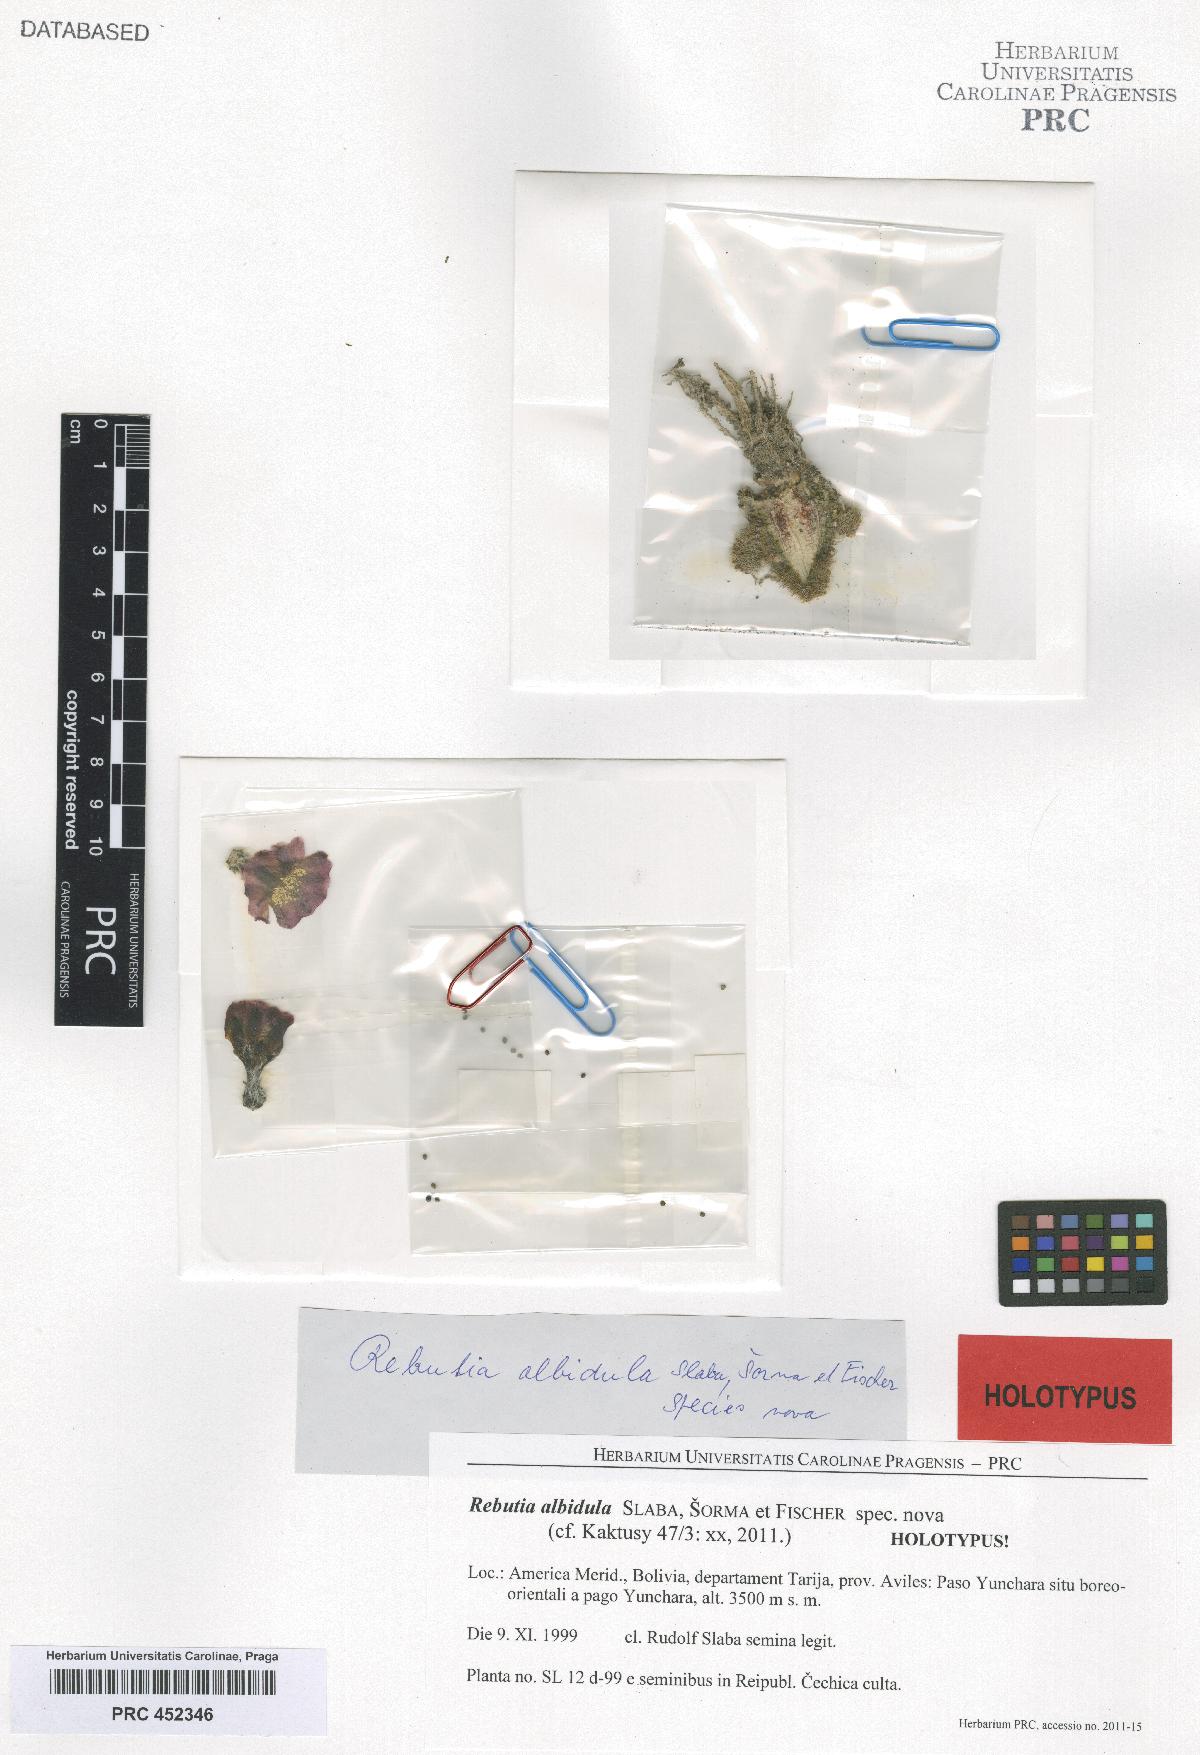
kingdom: Plantae
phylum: Tracheophyta
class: Magnoliopsida
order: Caryophyllales
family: Cactaceae
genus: Aylostera
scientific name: Aylostera pygmaea
